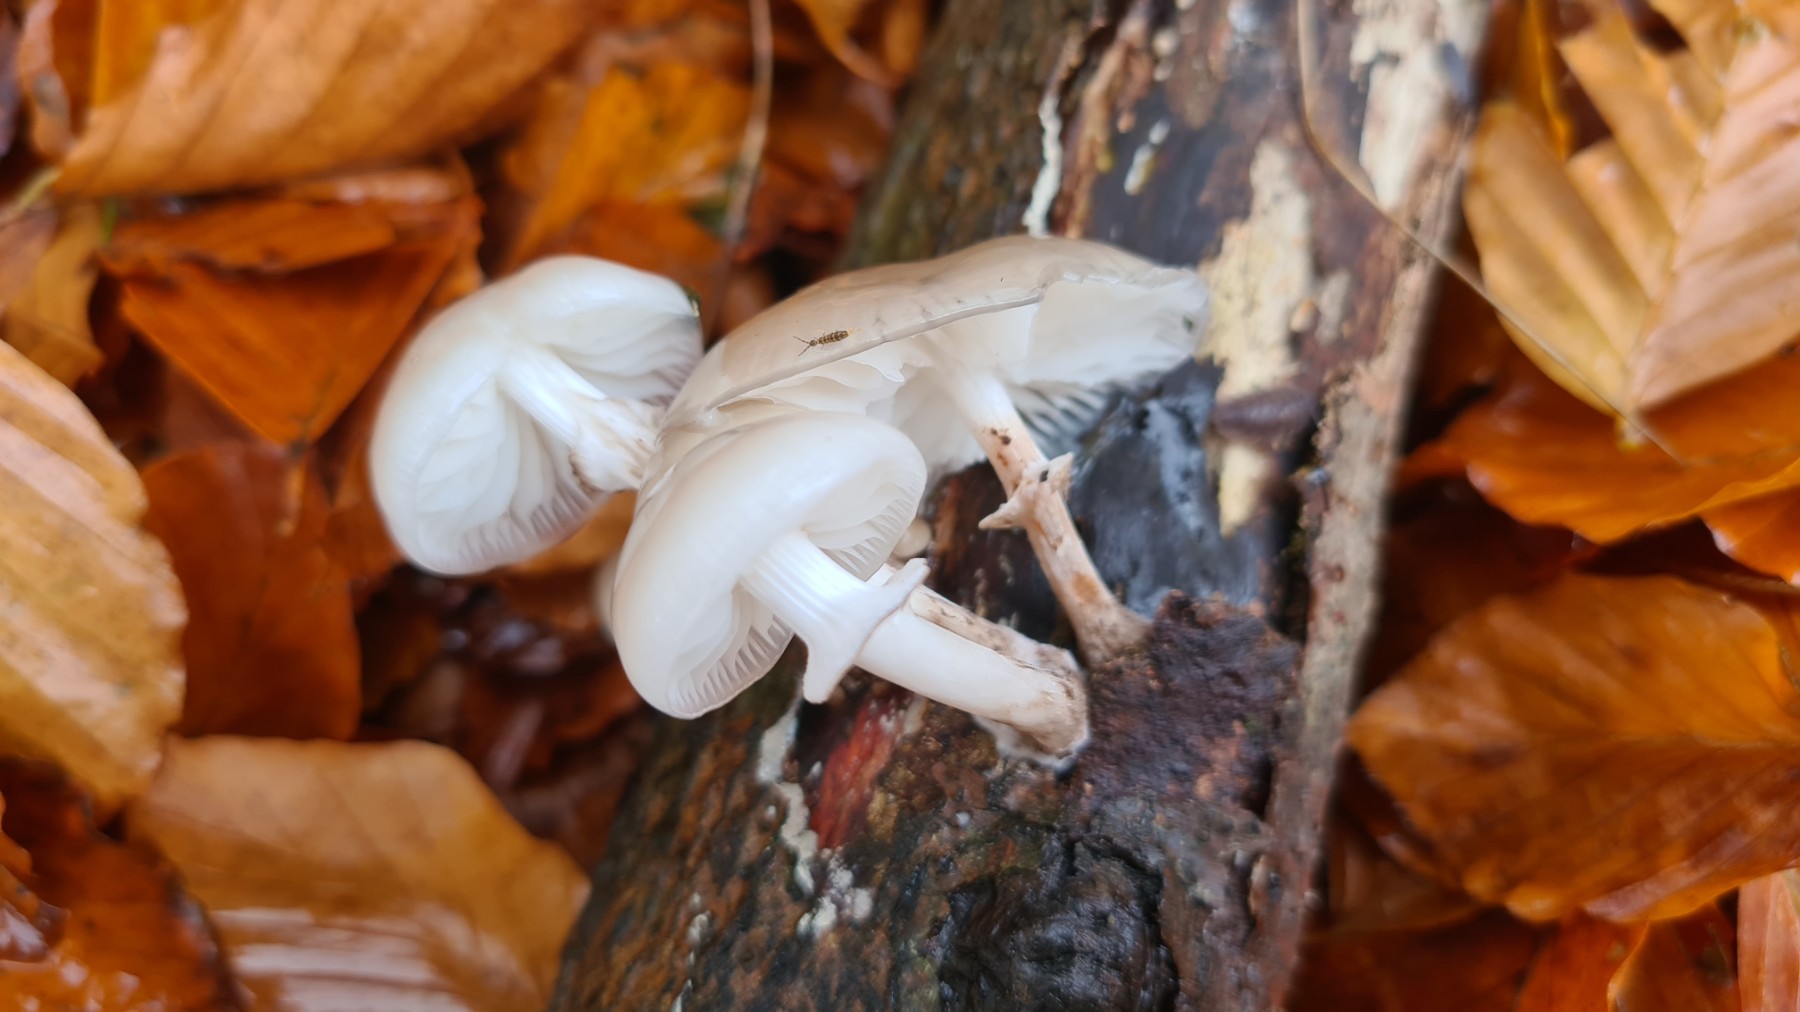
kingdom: Fungi
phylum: Basidiomycota
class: Agaricomycetes
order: Agaricales
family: Physalacriaceae
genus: Mucidula
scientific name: Mucidula mucida
